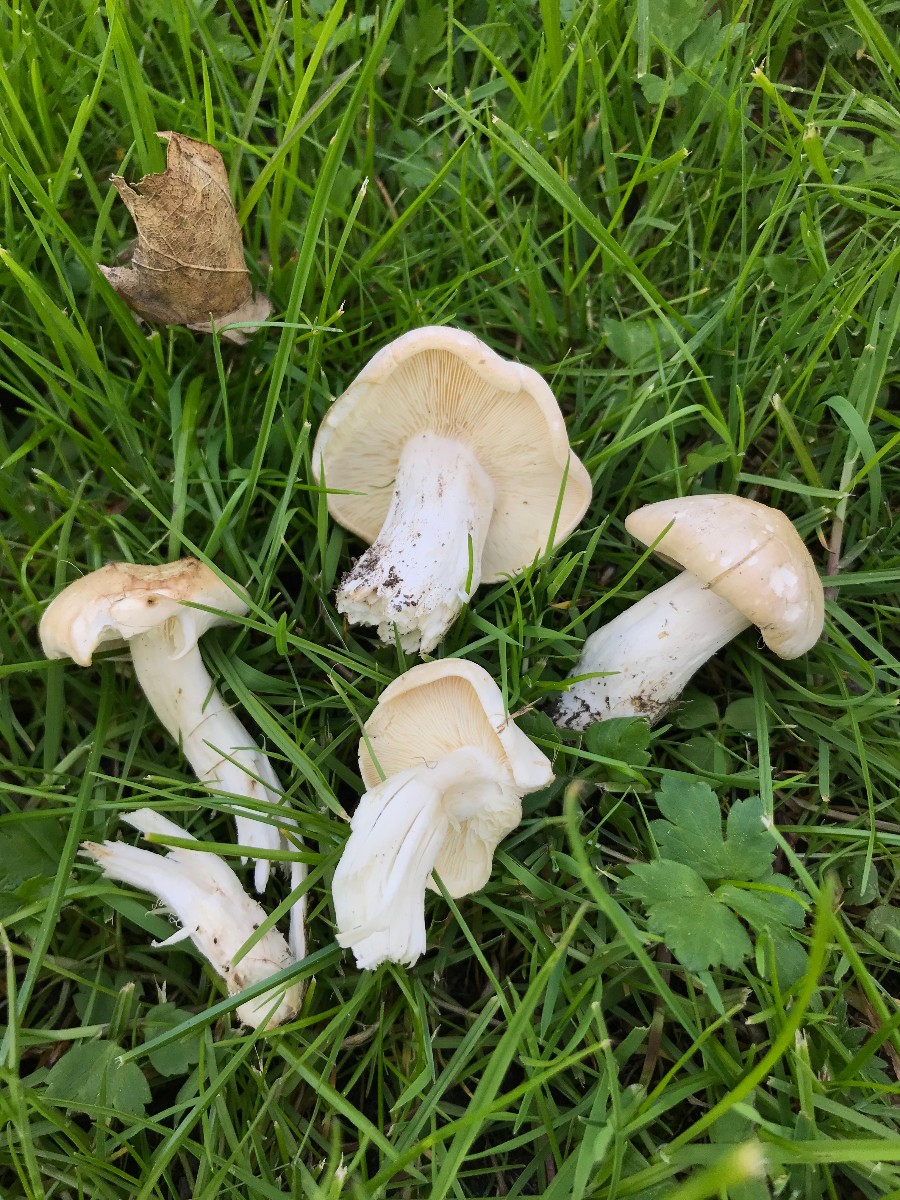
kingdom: Fungi
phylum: Basidiomycota
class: Agaricomycetes
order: Agaricales
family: Lyophyllaceae
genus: Calocybe
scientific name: Calocybe gambosa
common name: vårmusseron
